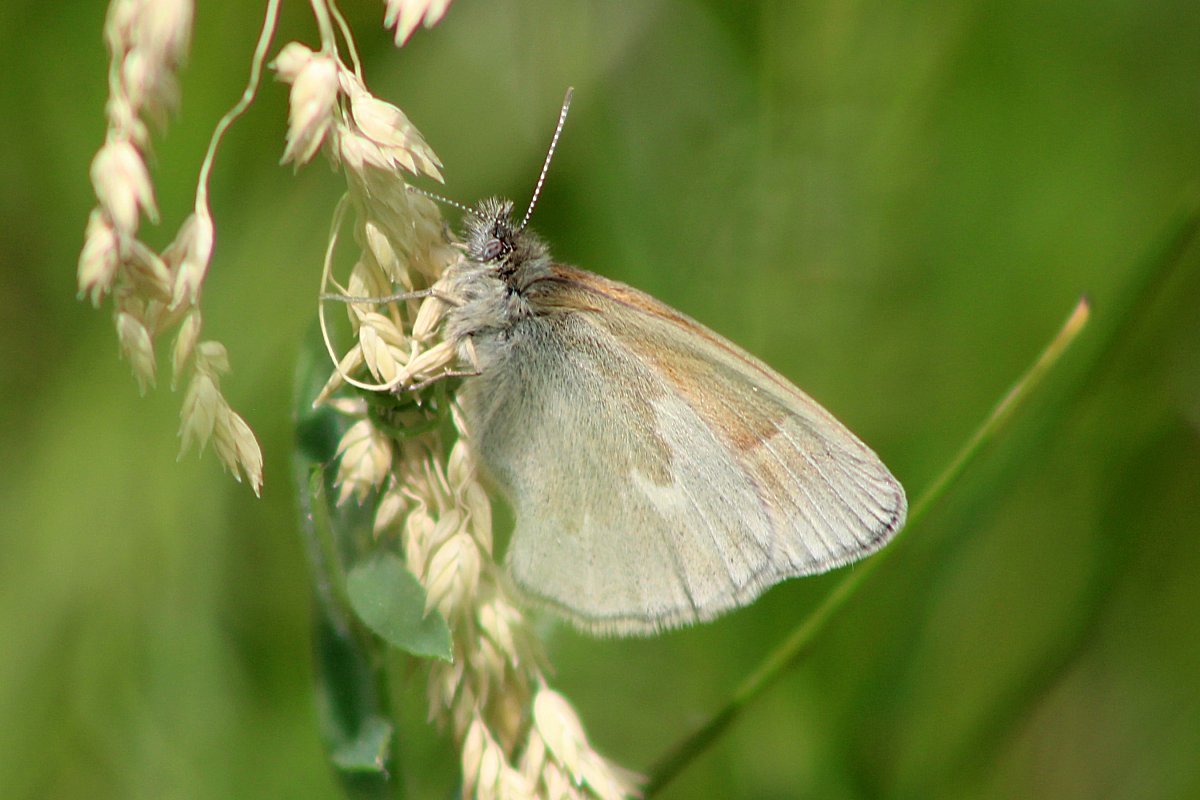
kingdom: Animalia
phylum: Arthropoda
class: Insecta
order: Lepidoptera
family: Nymphalidae
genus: Coenonympha
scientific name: Coenonympha tullia
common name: Large Heath
